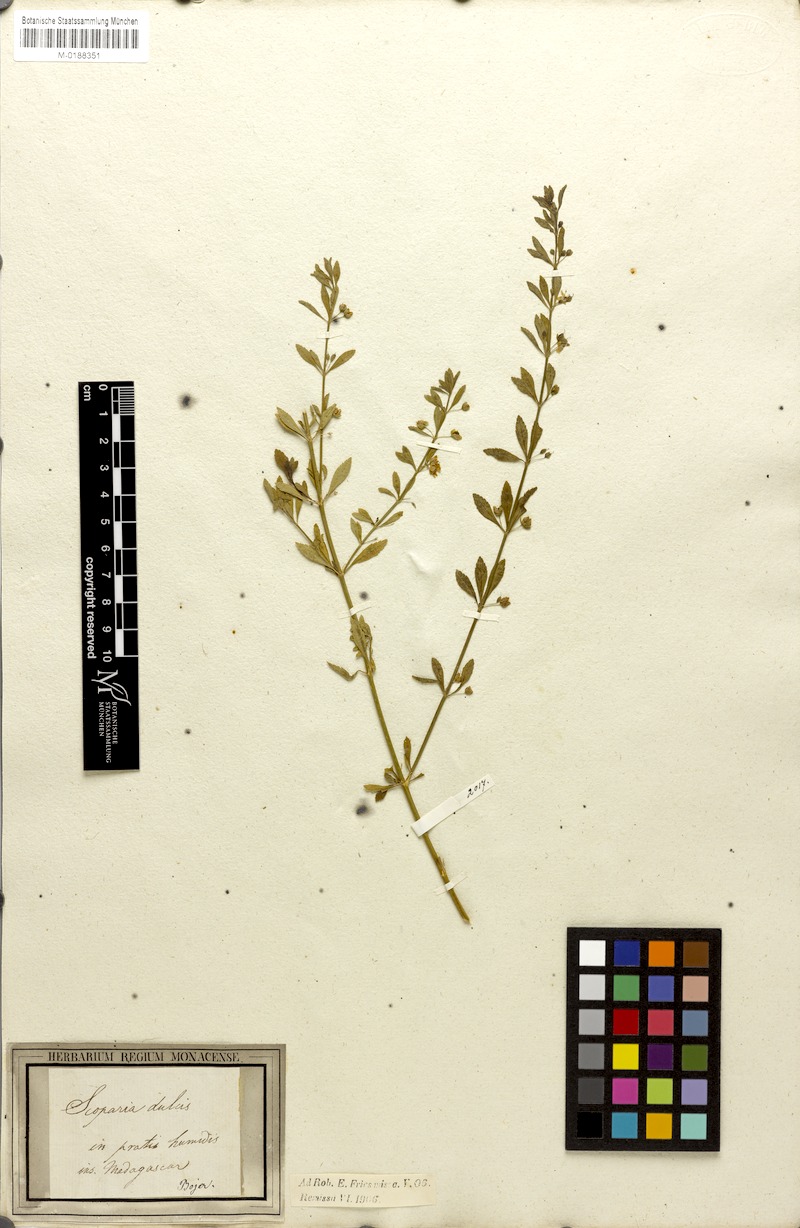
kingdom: Plantae
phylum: Tracheophyta
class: Magnoliopsida
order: Lamiales
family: Plantaginaceae
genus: Scoparia
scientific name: Scoparia dulcis
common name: Scoparia-weed
